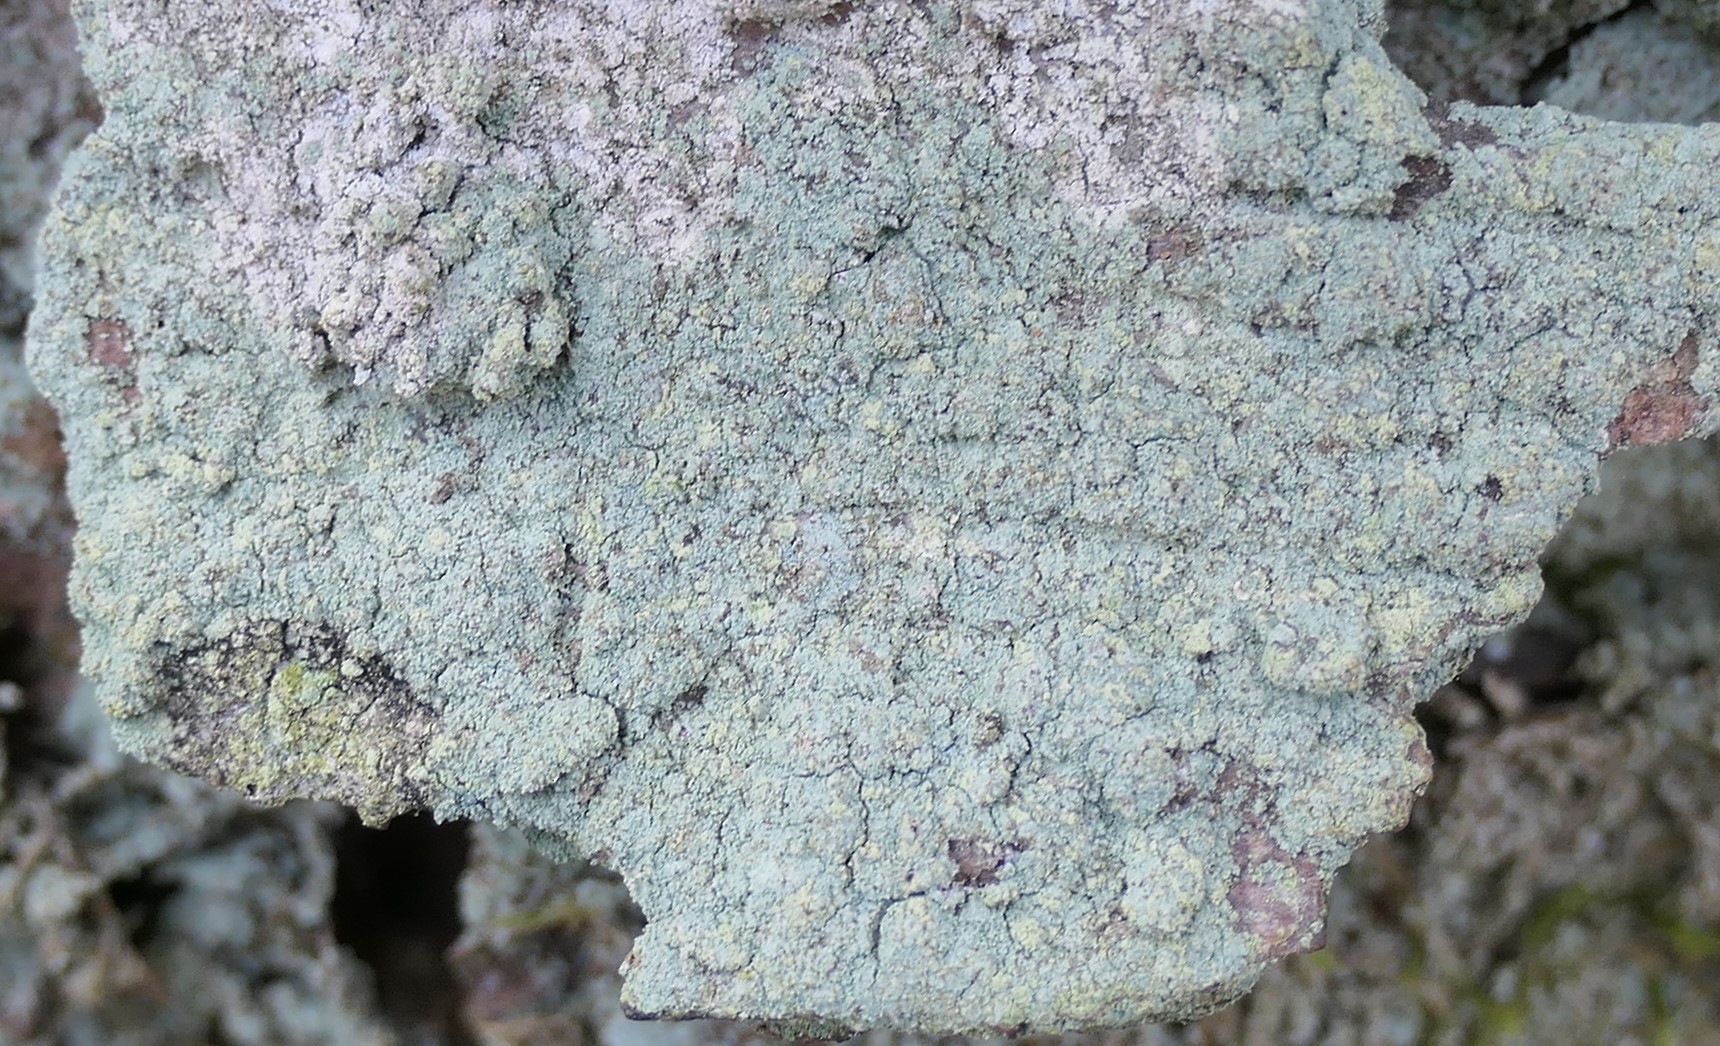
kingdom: Fungi
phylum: Ascomycota
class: Lecanoromycetes
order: Lecanorales
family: Stereocaulaceae
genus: Lepraria
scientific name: Lepraria incana
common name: almindelig støvlav
